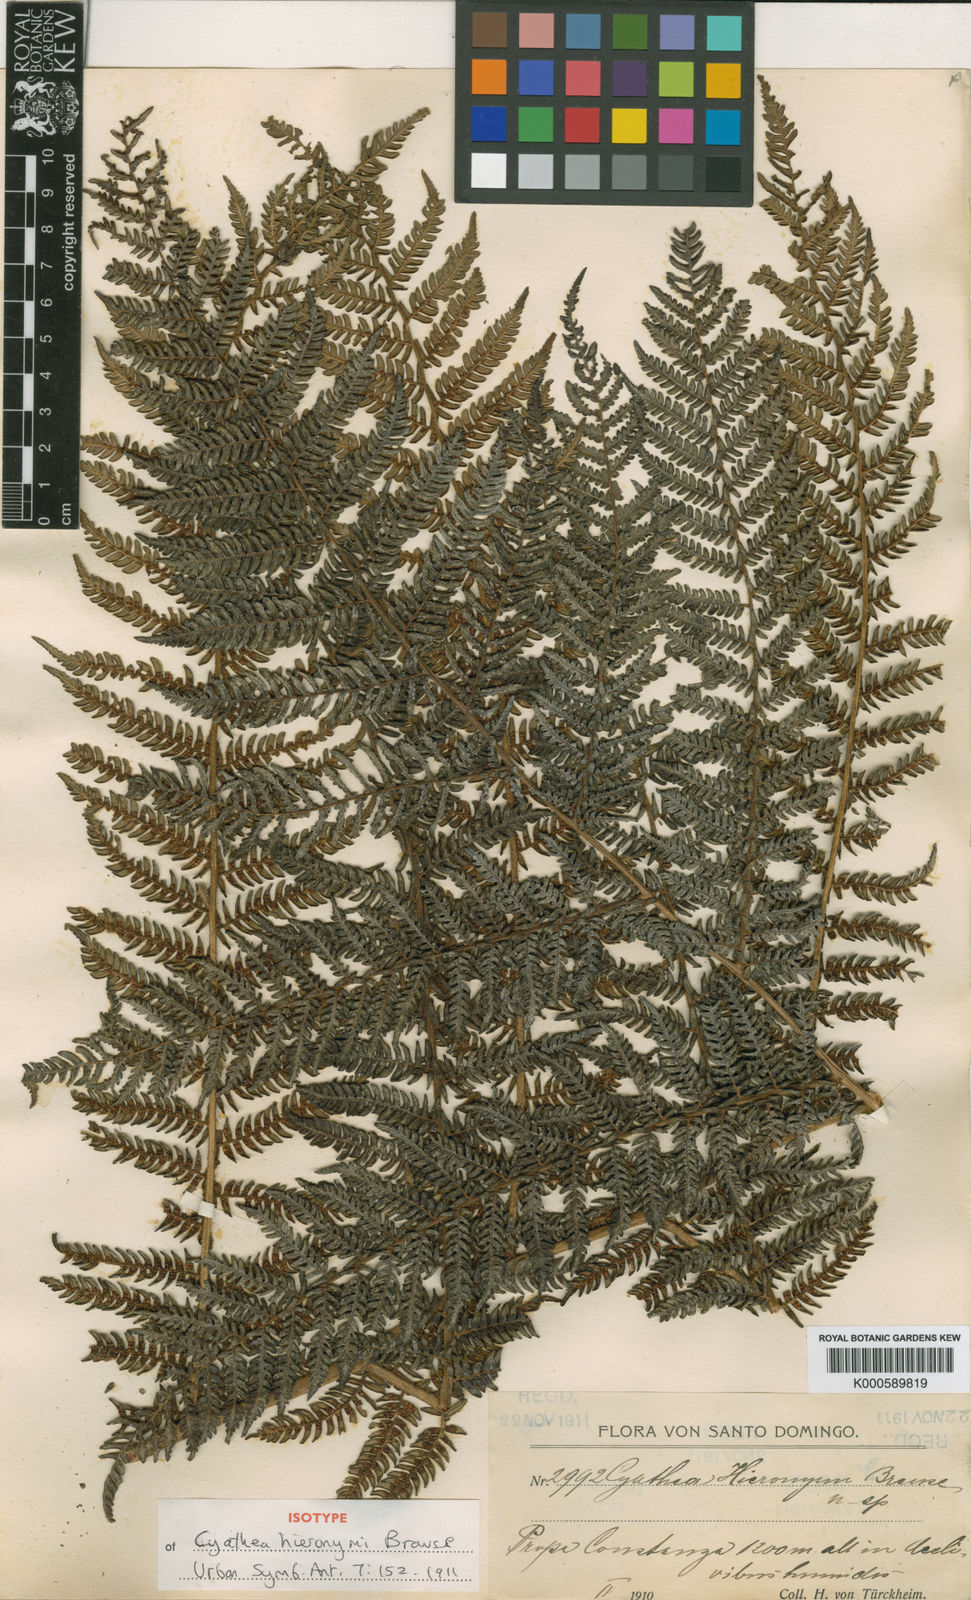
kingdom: Plantae
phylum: Tracheophyta
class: Polypodiopsida
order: Cyatheales
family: Cyatheaceae
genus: Alsophila
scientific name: Alsophila woodwardioides
